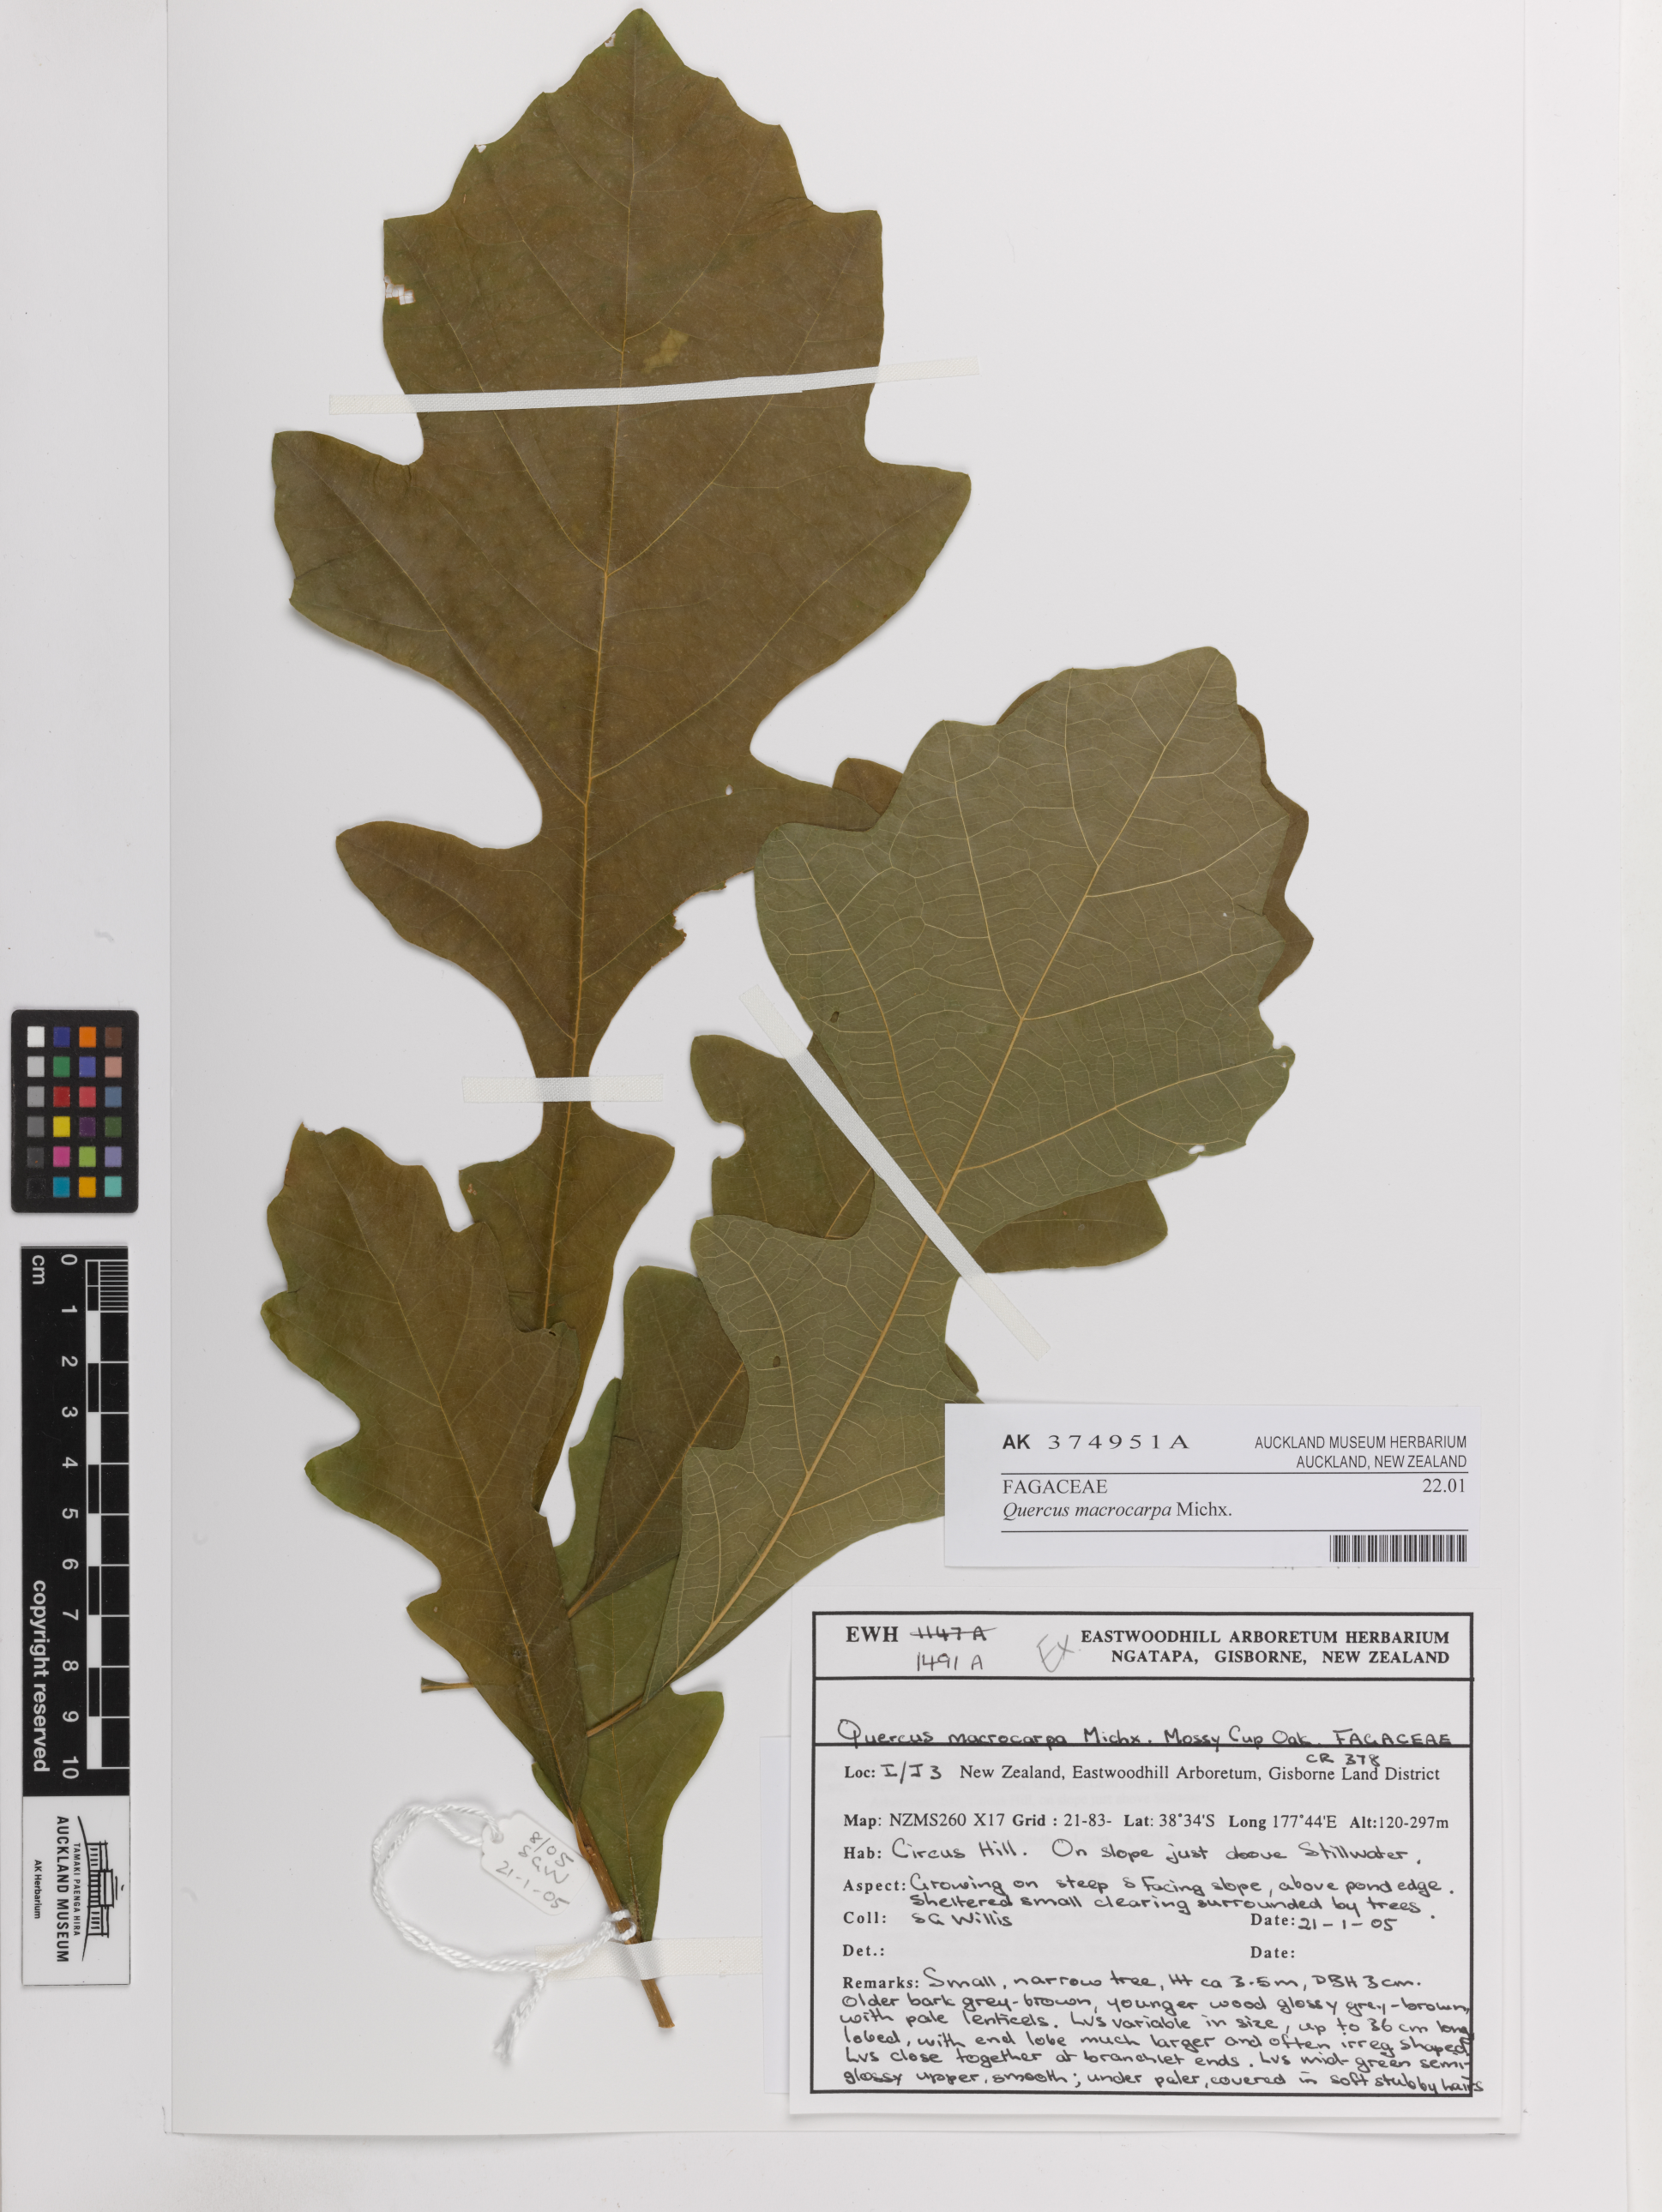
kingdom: Plantae
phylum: Tracheophyta
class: Magnoliopsida
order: Fagales
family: Fagaceae
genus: Quercus
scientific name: Quercus macrocarpa
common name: Bur oak
